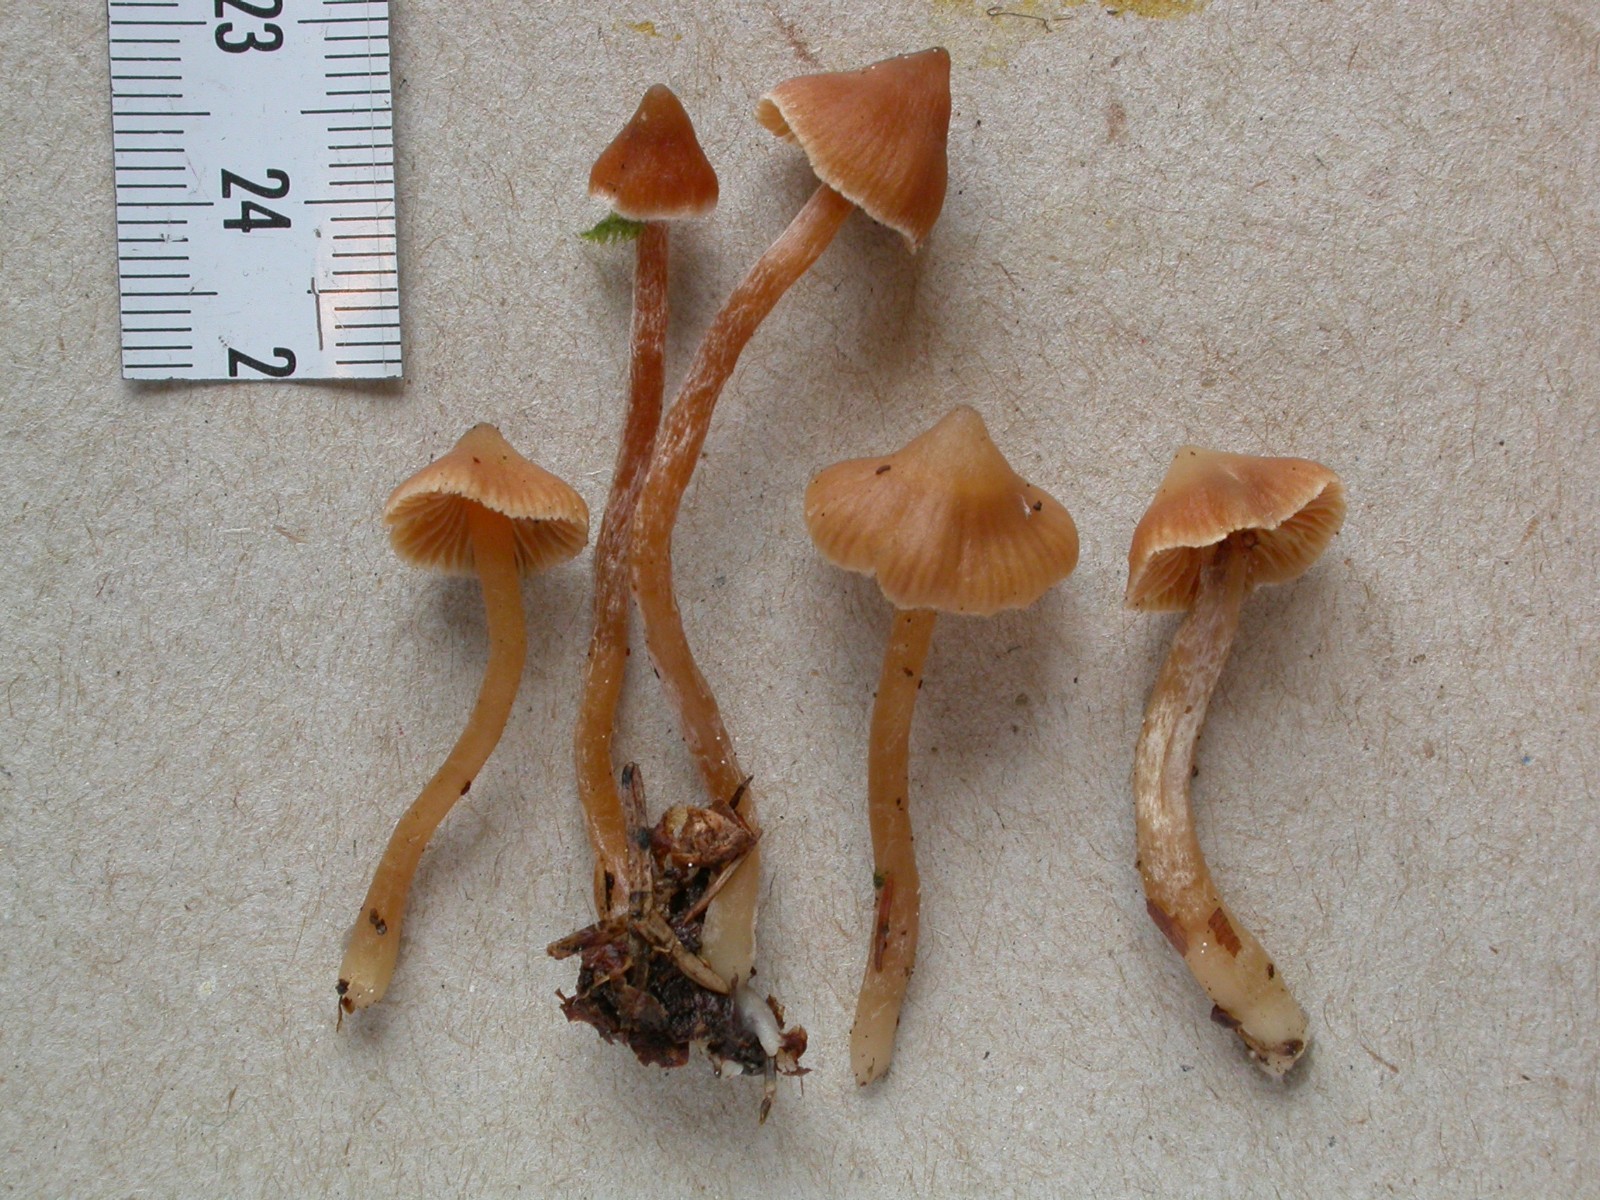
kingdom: Fungi
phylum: Basidiomycota
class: Agaricomycetes
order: Agaricales
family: Cortinariaceae
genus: Cortinarius
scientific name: Cortinarius acutus
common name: spids slørhat
